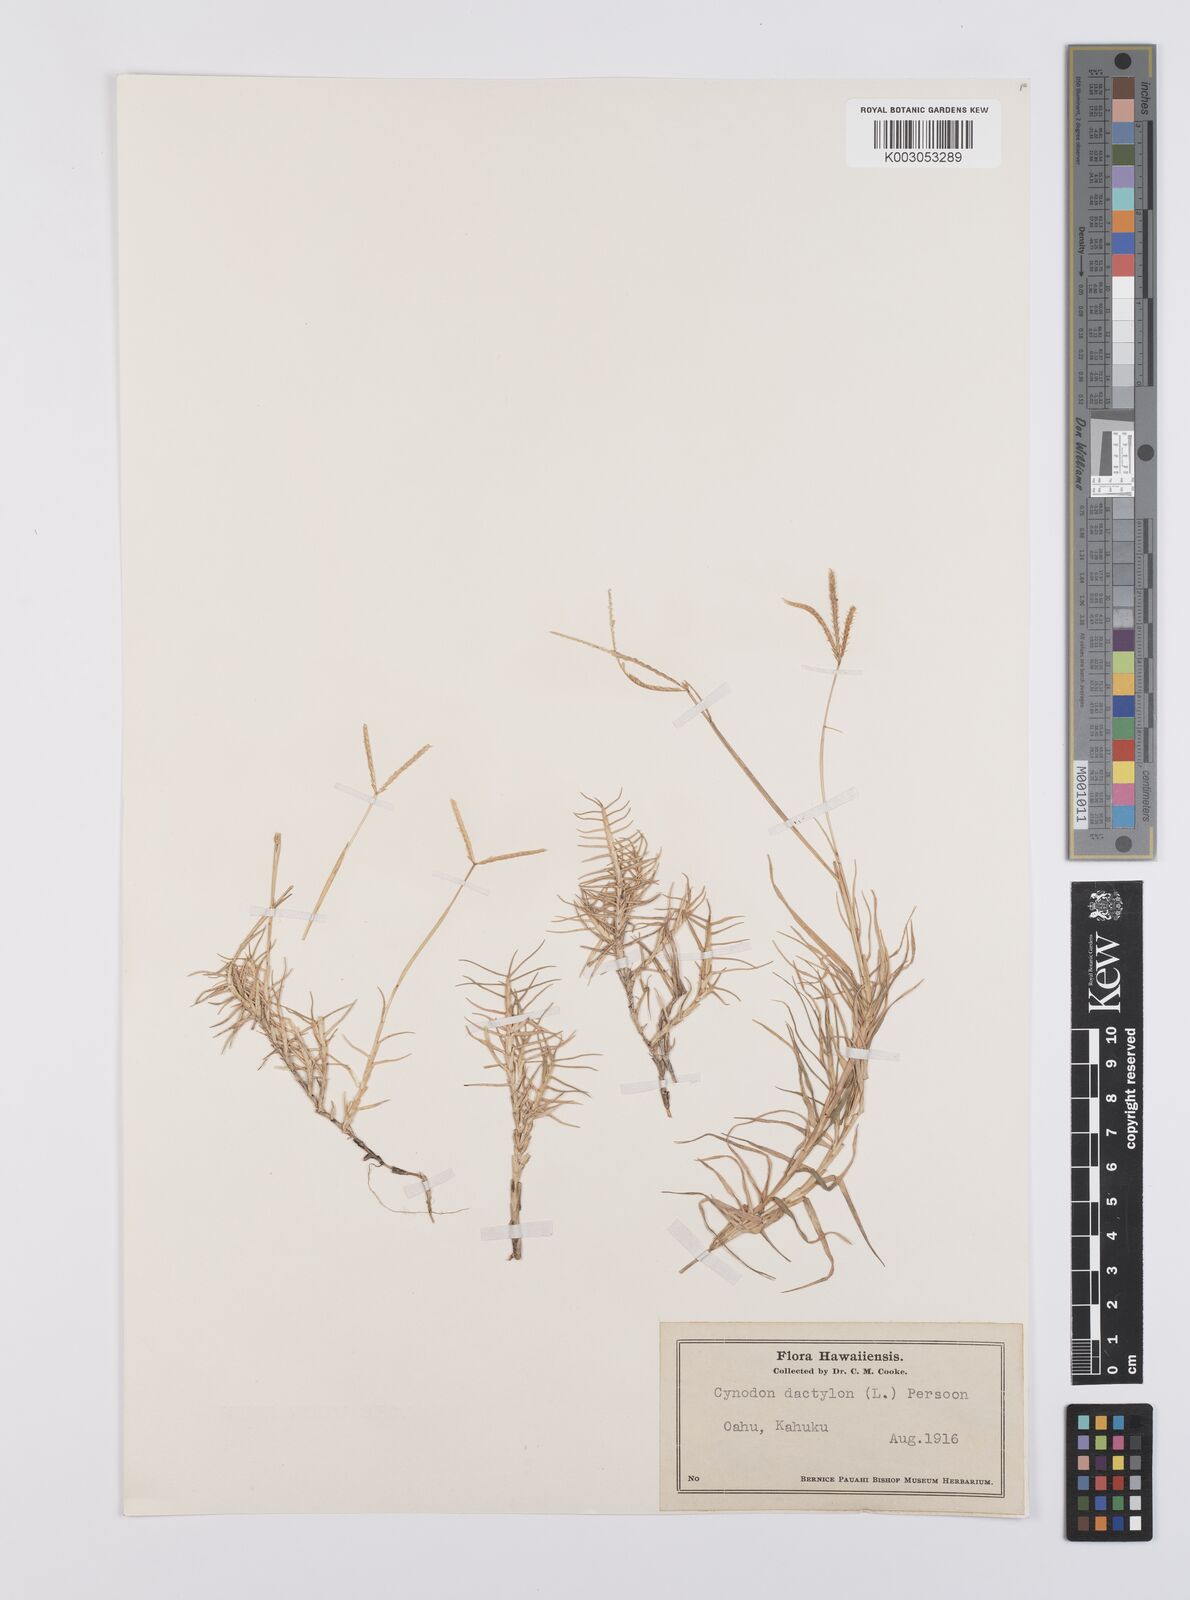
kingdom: Plantae
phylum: Tracheophyta
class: Liliopsida
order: Poales
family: Poaceae
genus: Cynodon
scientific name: Cynodon dactylon
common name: Bermuda grass
